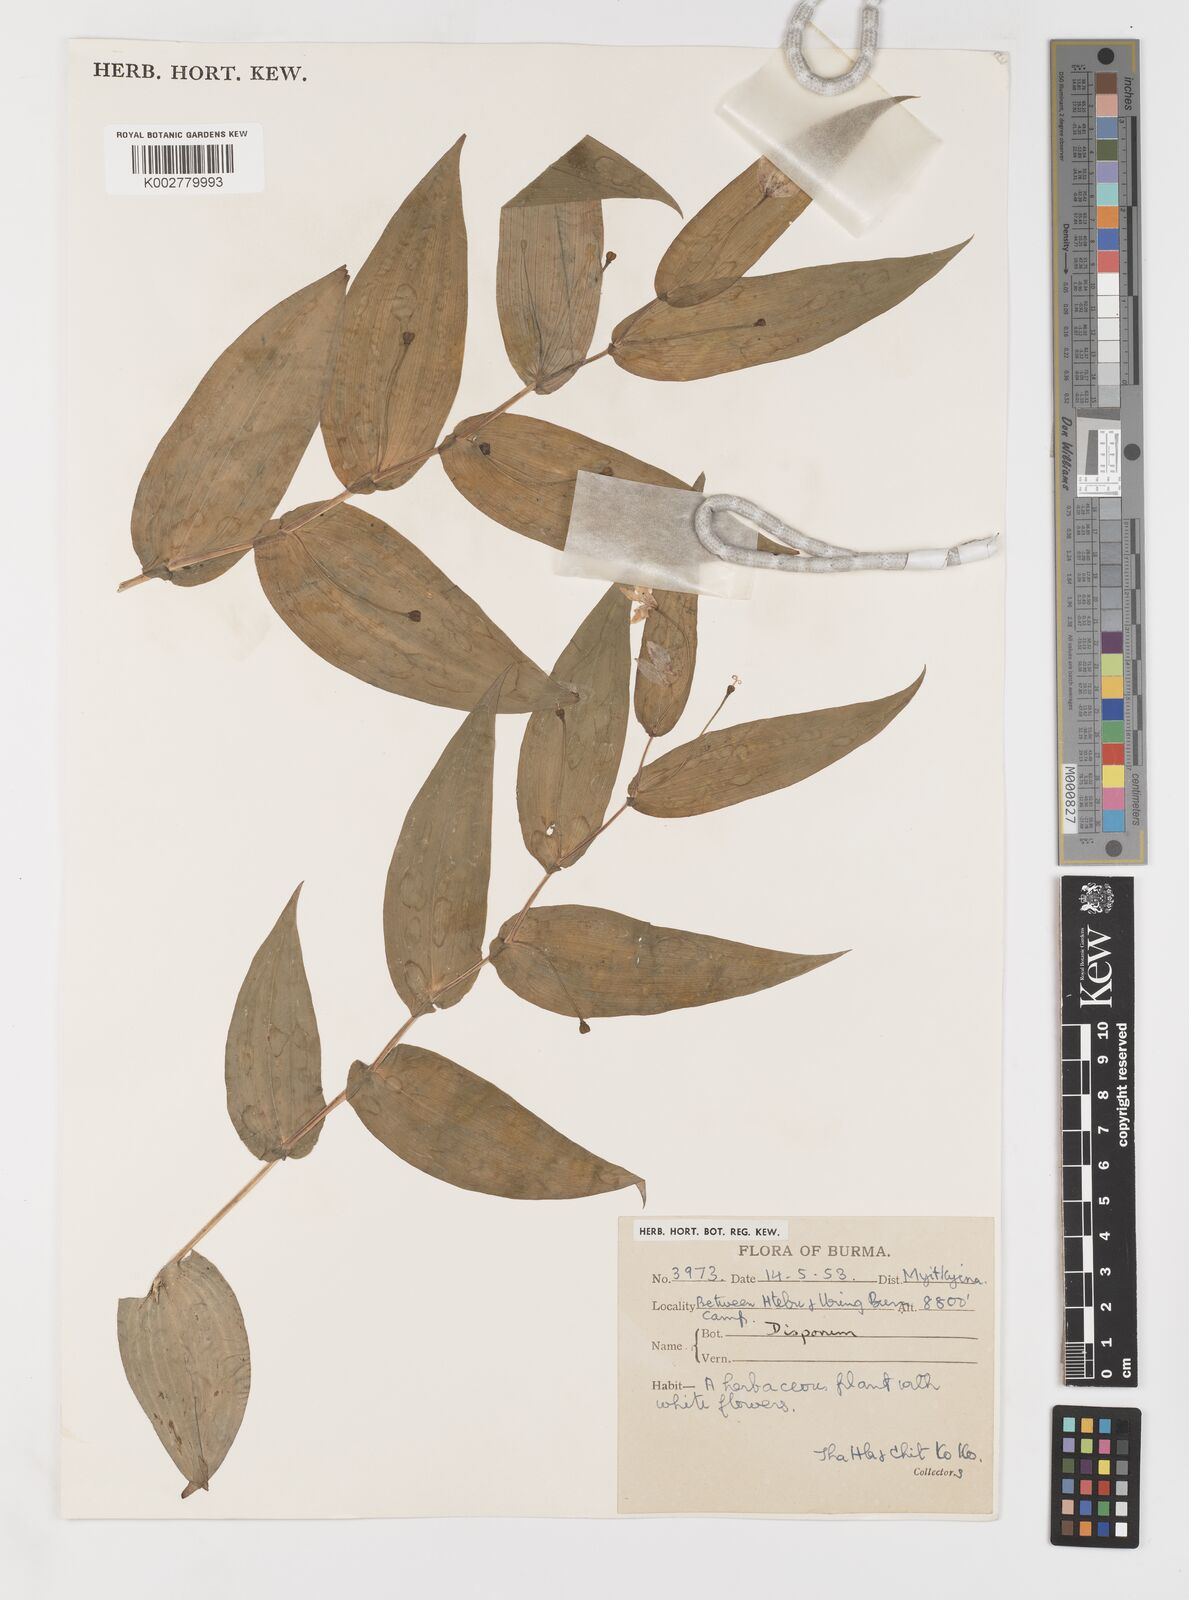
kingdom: Plantae
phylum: Tracheophyta
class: Liliopsida
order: Liliales
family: Colchicaceae
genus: Disporum
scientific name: Disporum
